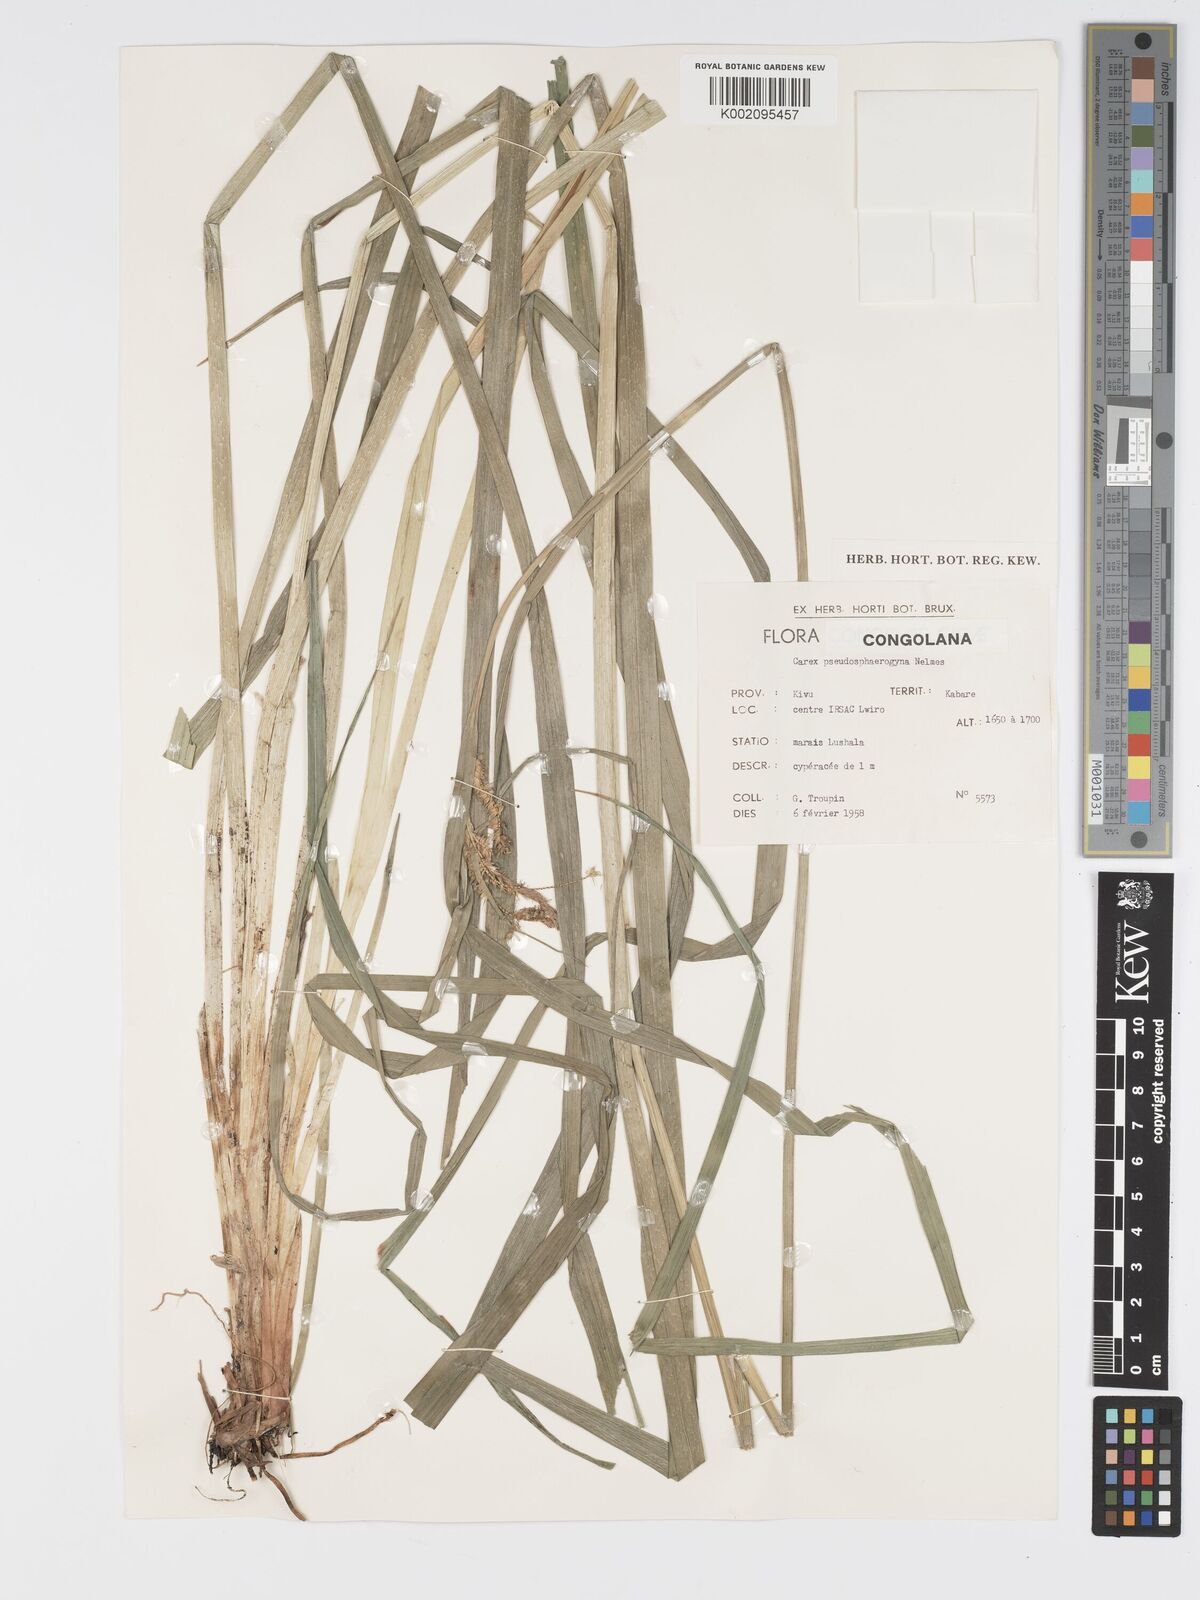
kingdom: Plantae
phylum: Tracheophyta
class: Liliopsida
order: Poales
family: Cyperaceae
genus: Carex
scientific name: Carex congolensis
